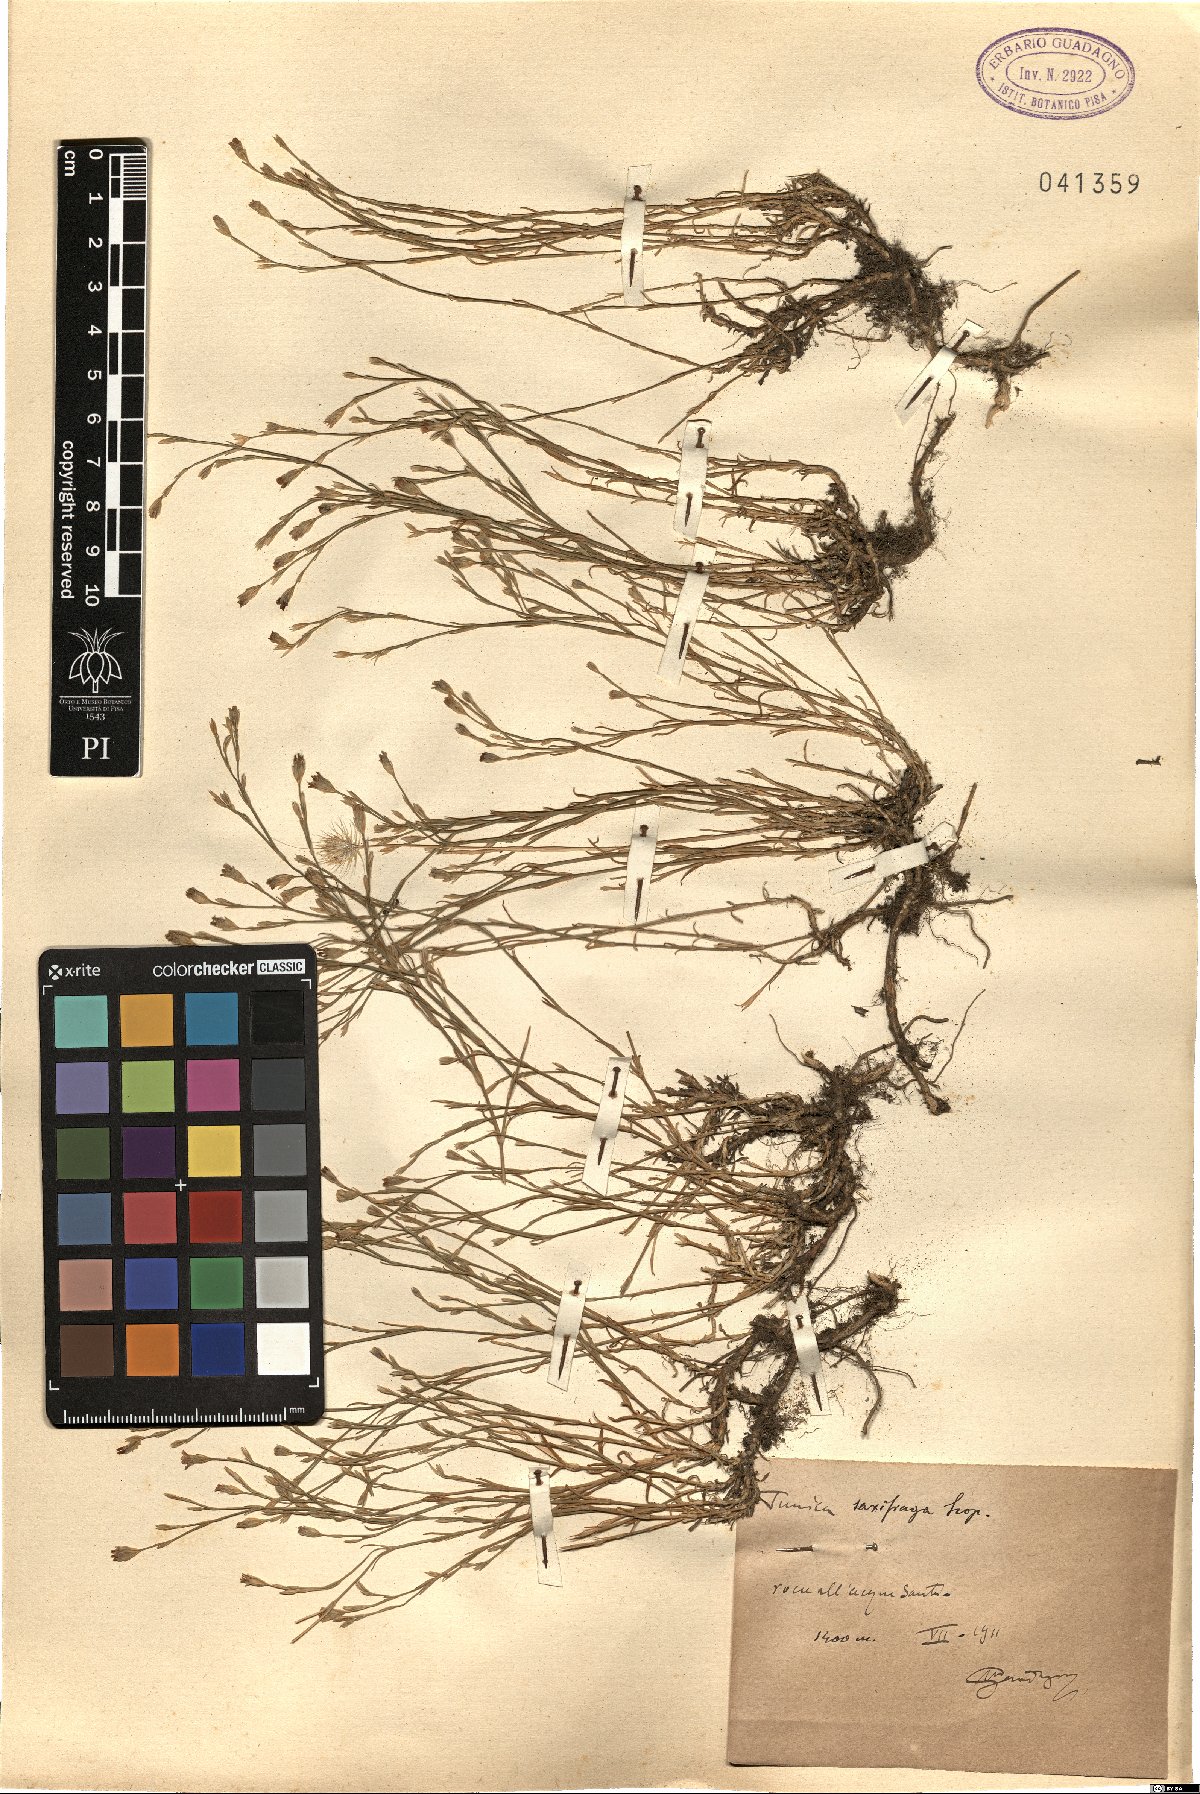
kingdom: Plantae
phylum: Tracheophyta
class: Magnoliopsida
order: Caryophyllales
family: Caryophyllaceae
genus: Petrorhagia
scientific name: Petrorhagia saxifraga
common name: Tunicflower
